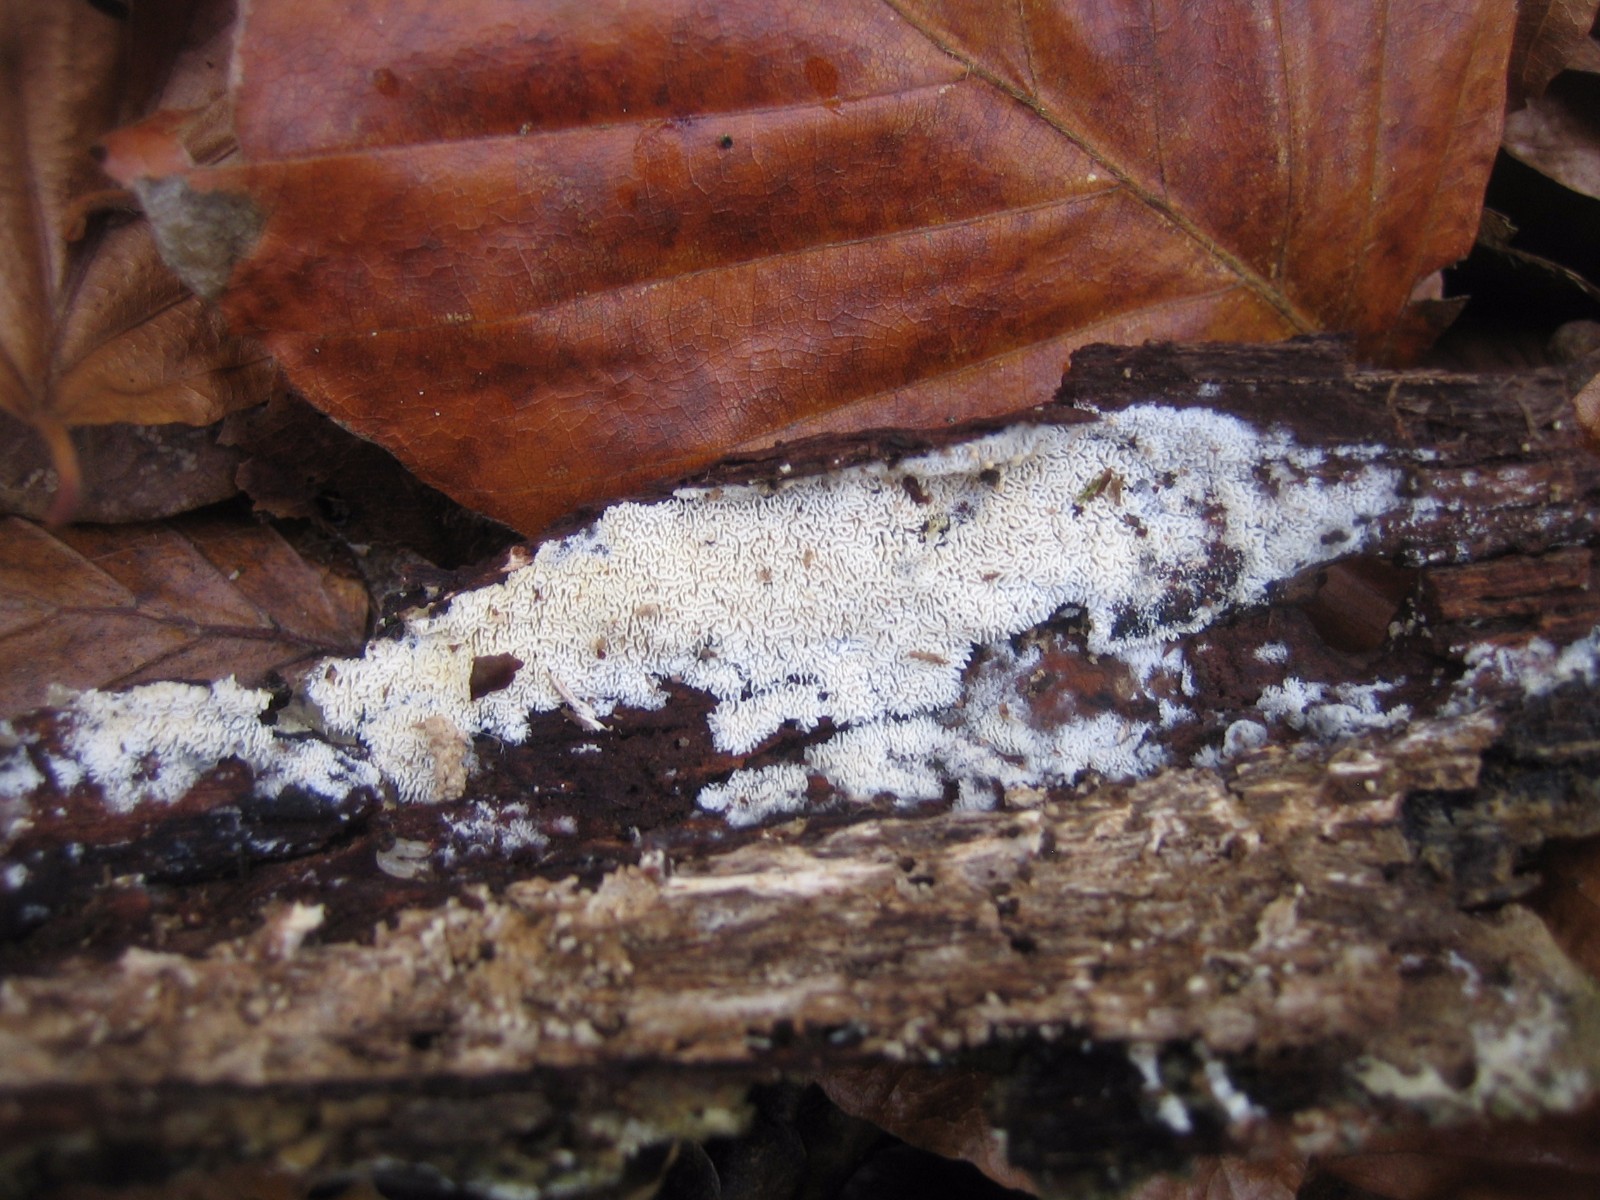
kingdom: Fungi
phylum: Basidiomycota
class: Agaricomycetes
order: Hymenochaetales
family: Schizoporaceae
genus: Xylodon
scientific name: Xylodon subtropicus
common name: labyrint-tandsvamp
